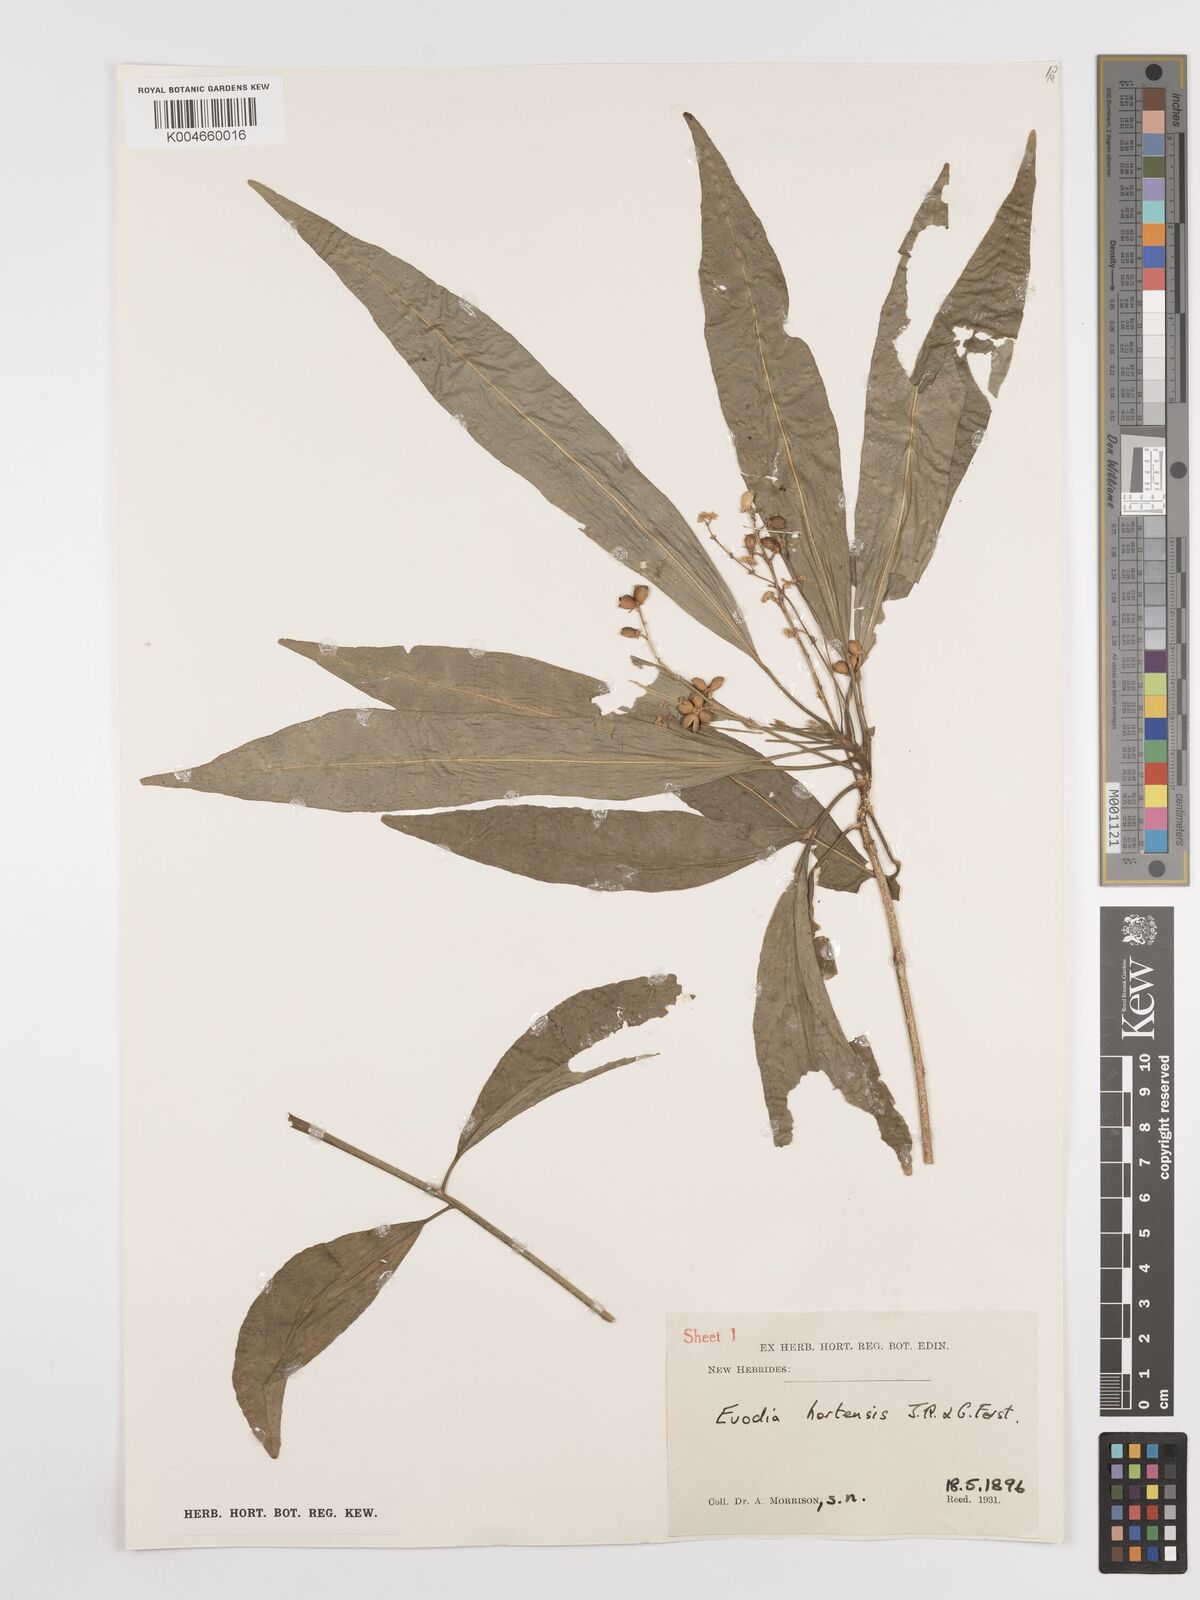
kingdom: Plantae
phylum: Tracheophyta
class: Magnoliopsida
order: Sapindales
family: Rutaceae
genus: Euodia
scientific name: Euodia hortensis
